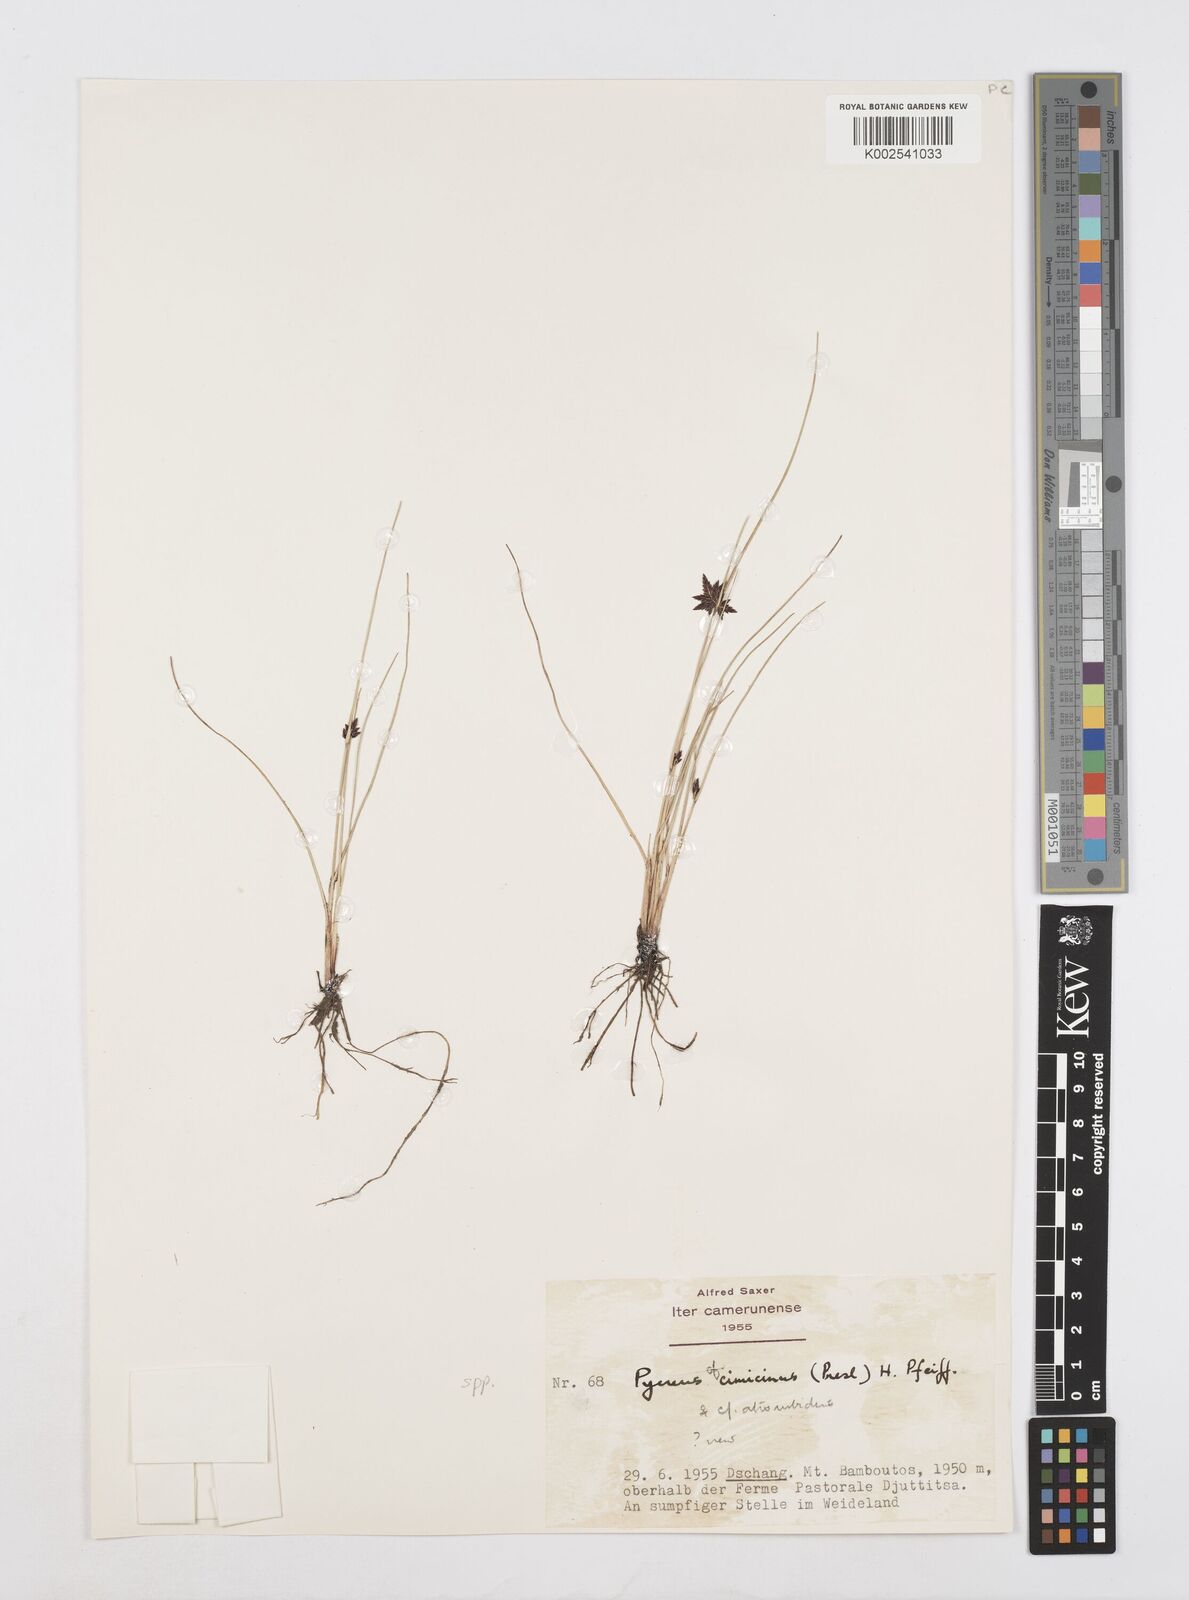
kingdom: Plantae
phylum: Tracheophyta
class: Liliopsida
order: Poales
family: Cyperaceae
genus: Cyperus
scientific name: Cyperus
